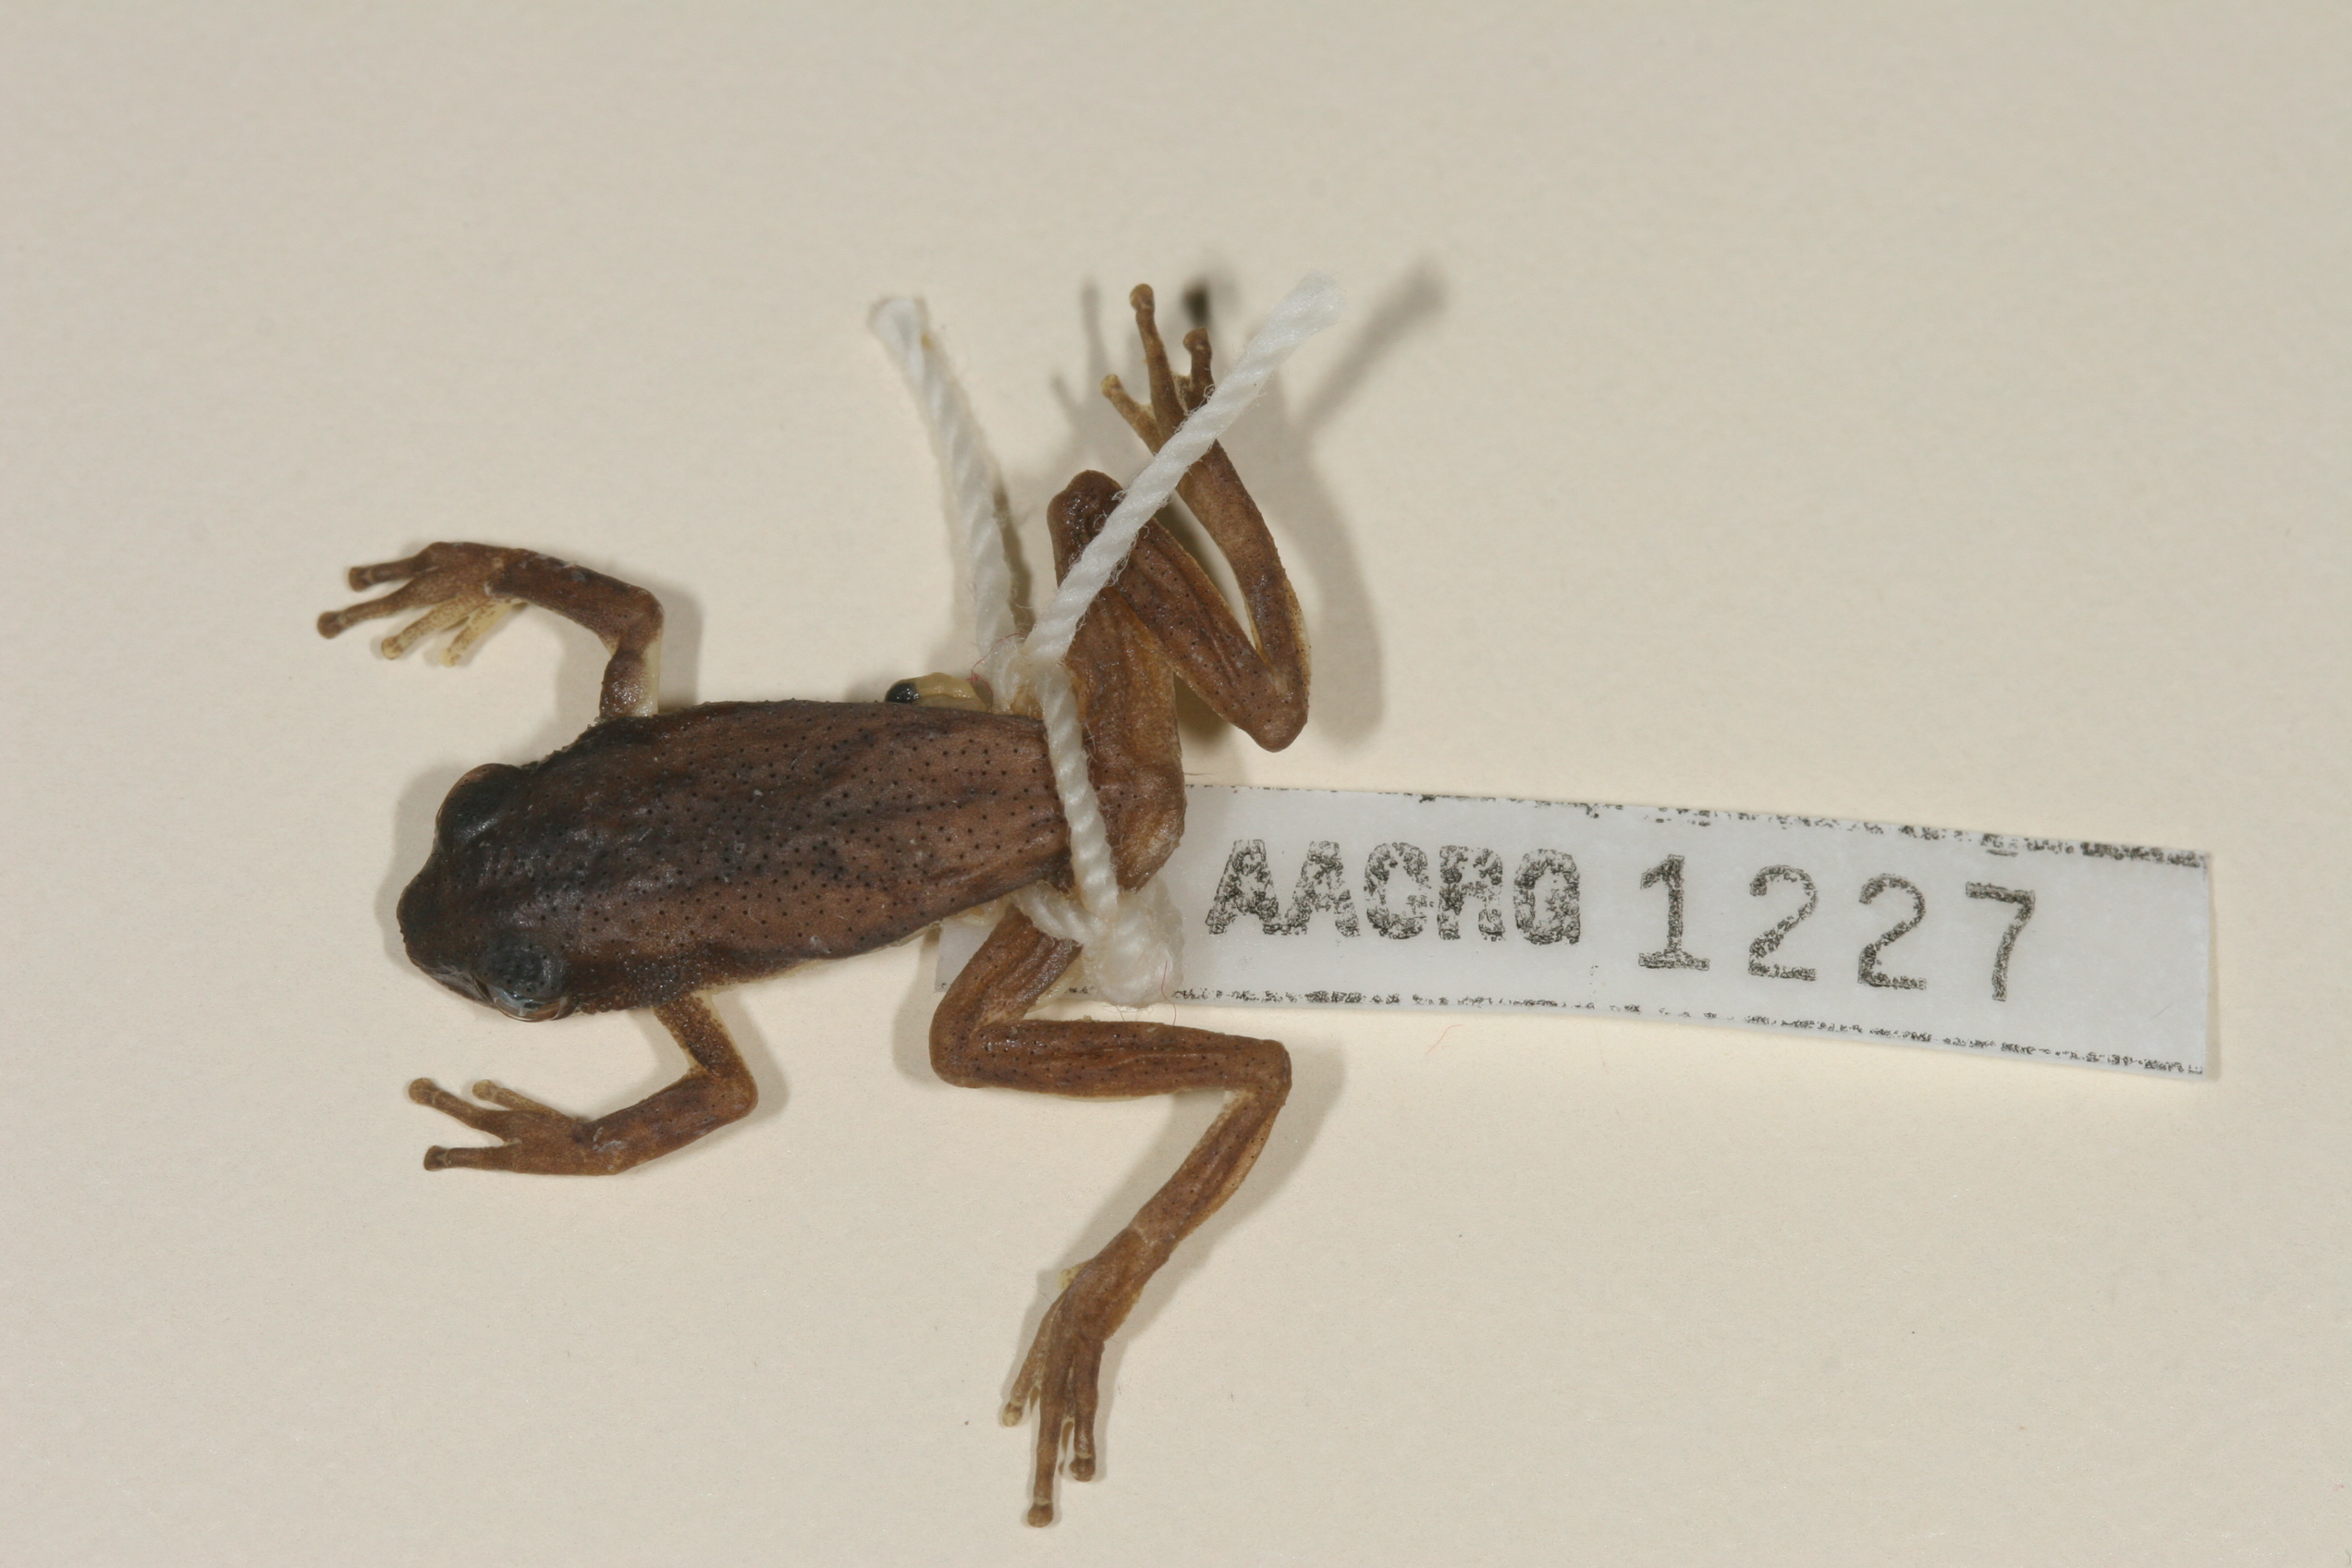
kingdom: Animalia
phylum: Chordata
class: Amphibia
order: Anura
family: Hyperoliidae
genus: Afrixalus
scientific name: Afrixalus spinifrons
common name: Natal spiny reed frog
